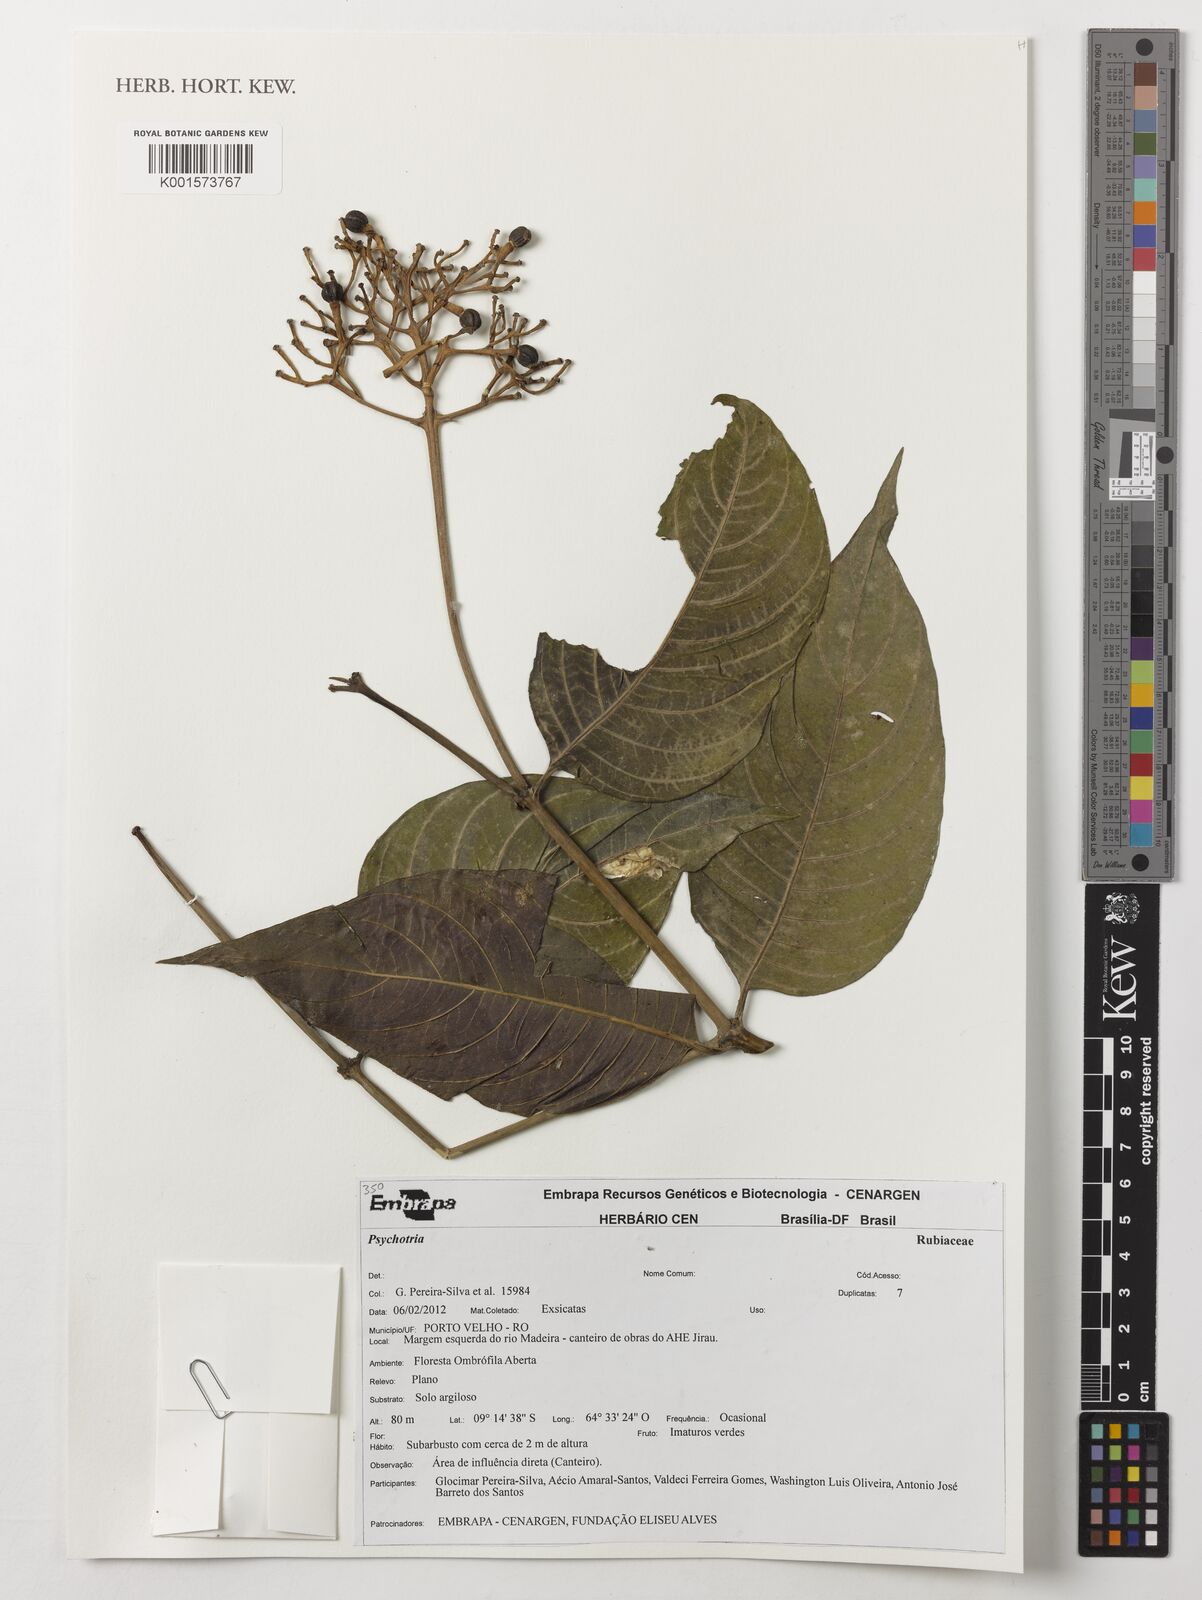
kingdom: Plantae
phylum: Tracheophyta
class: Magnoliopsida
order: Gentianales
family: Rubiaceae
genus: Psychotria
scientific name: Psychotria
